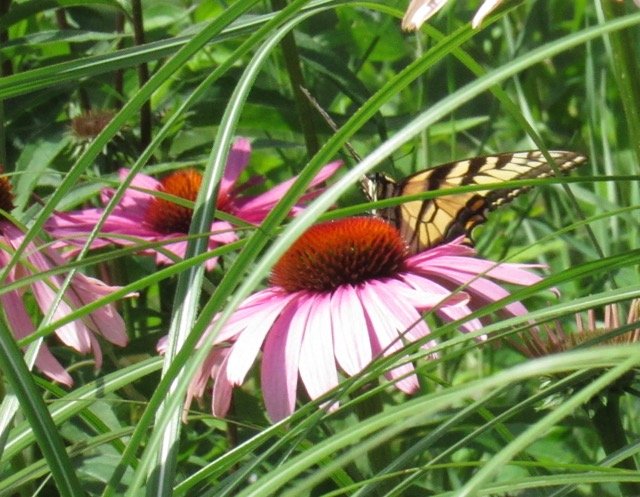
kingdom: Animalia
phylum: Arthropoda
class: Insecta
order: Lepidoptera
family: Papilionidae
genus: Pterourus
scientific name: Pterourus
